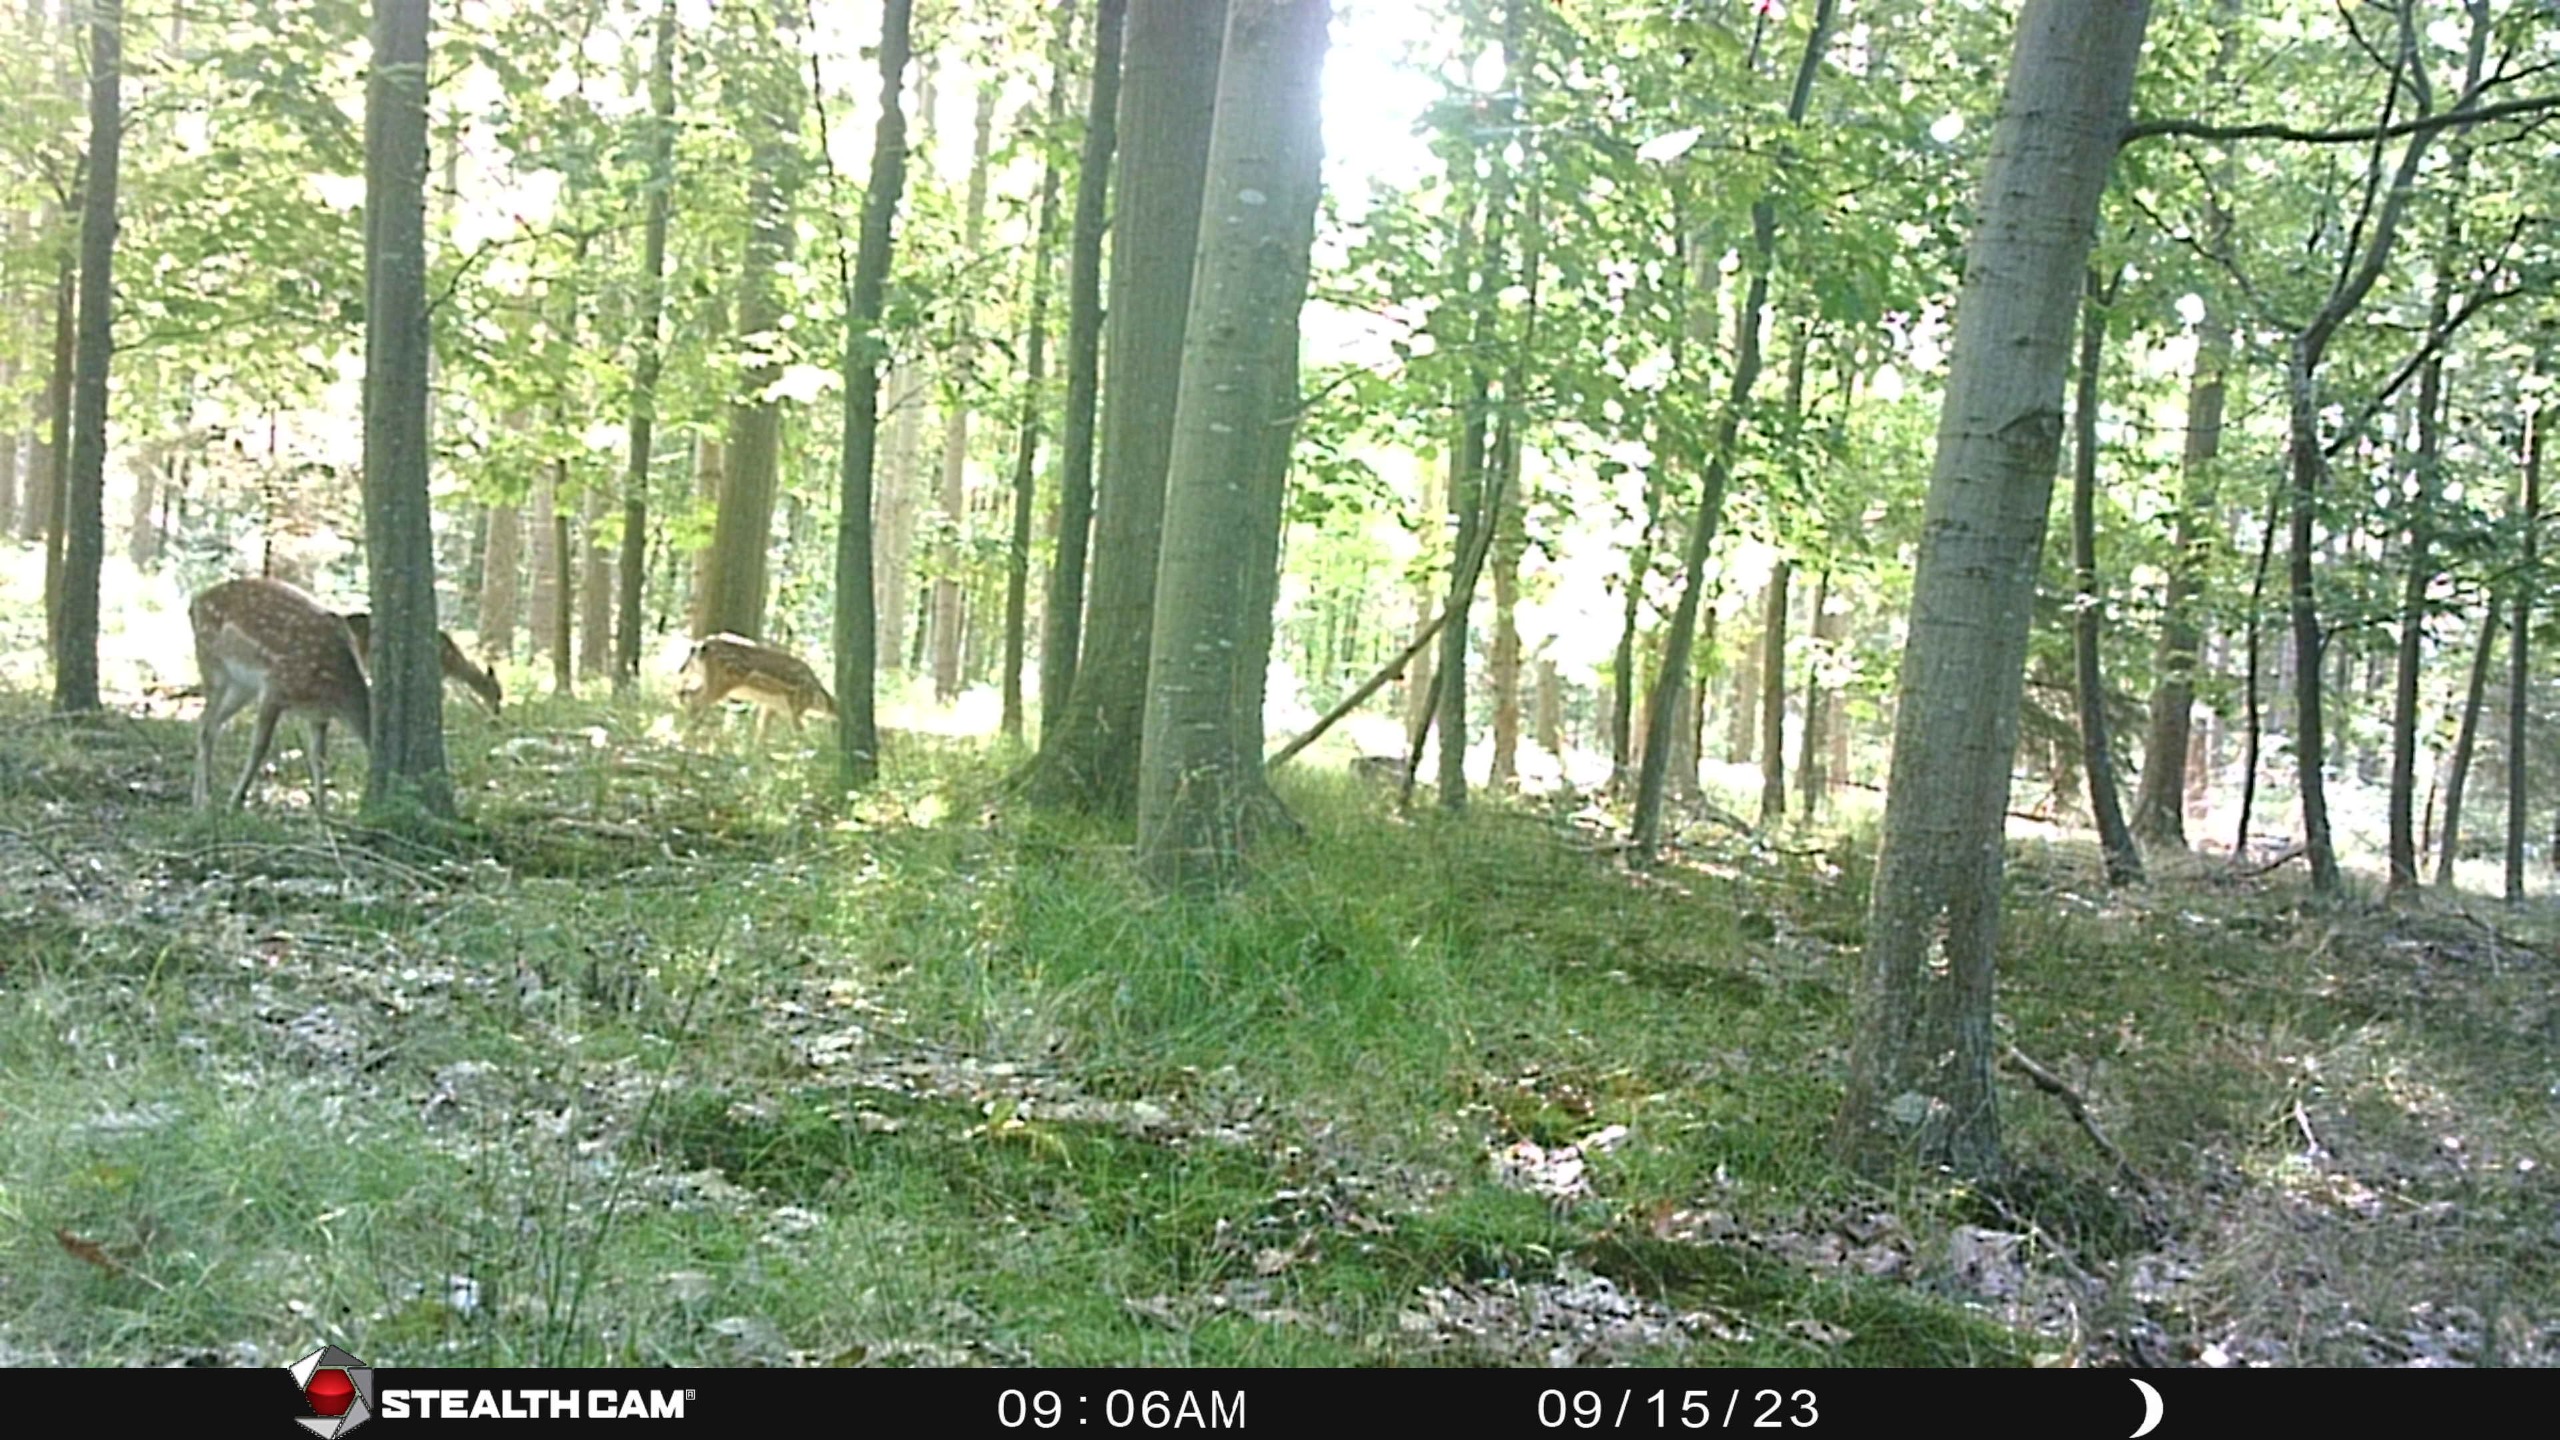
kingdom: Animalia
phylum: Chordata
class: Mammalia
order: Artiodactyla
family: Cervidae
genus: Dama
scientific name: Dama dama
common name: Dådyr
